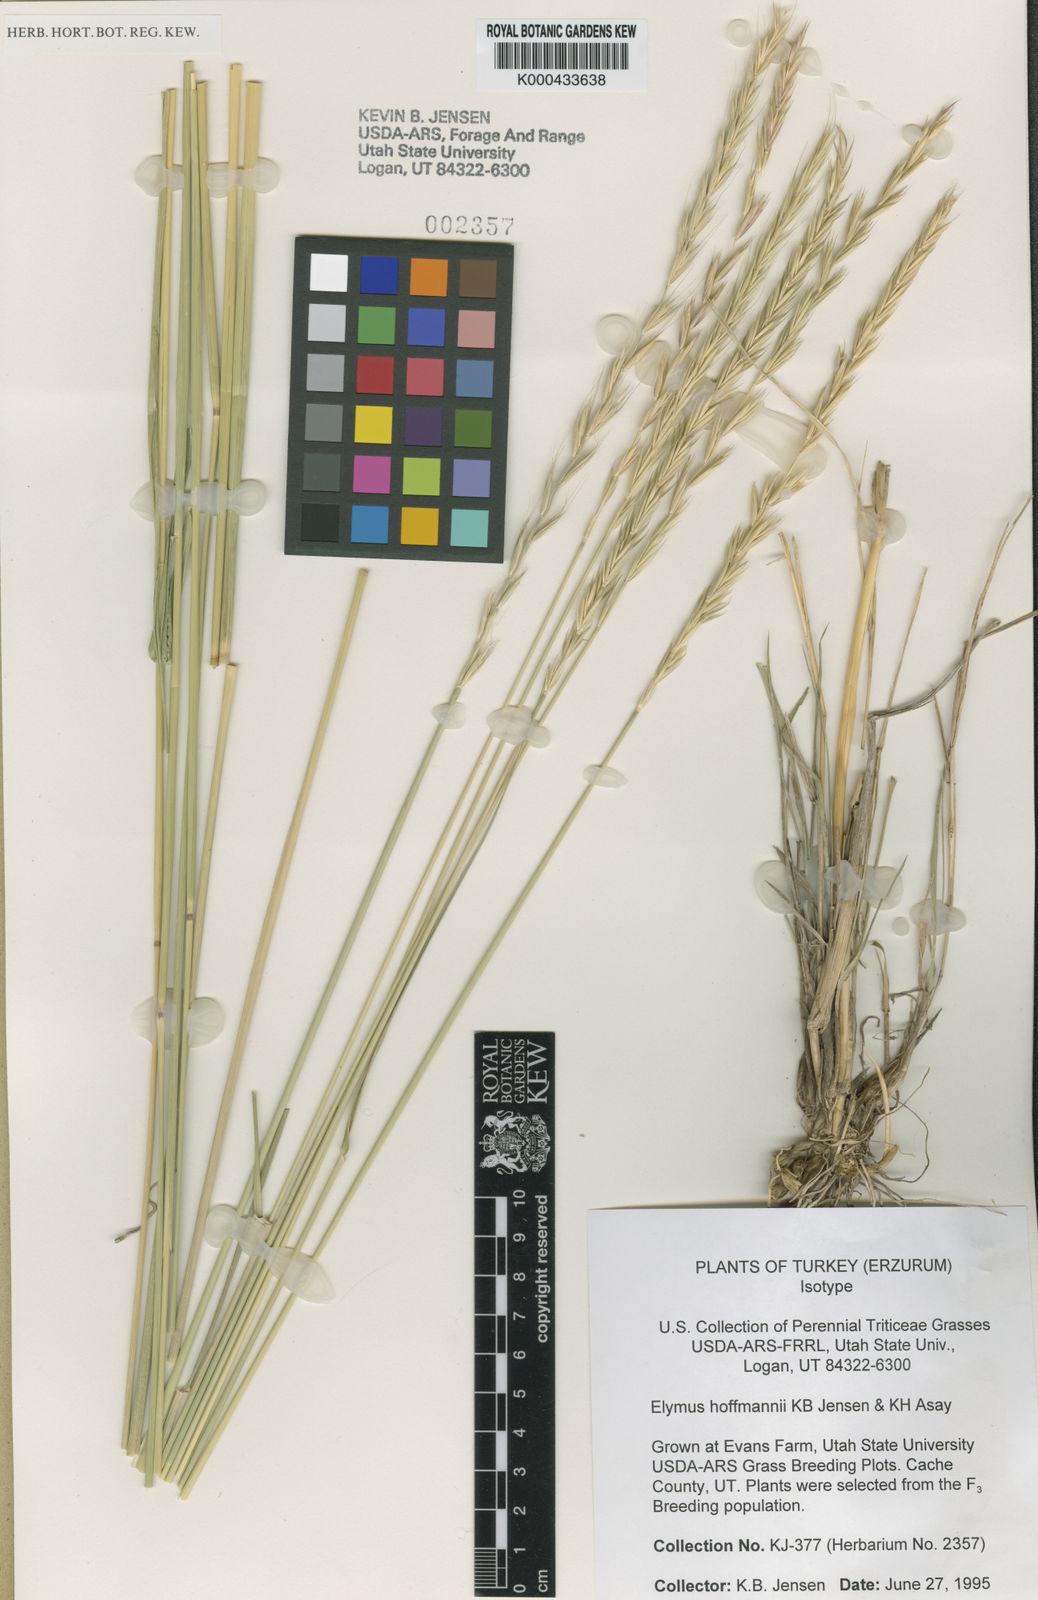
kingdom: Plantae
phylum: Tracheophyta
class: Liliopsida
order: Poales
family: Poaceae
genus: Elymus
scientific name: Elymus repens
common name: Quackgrass
